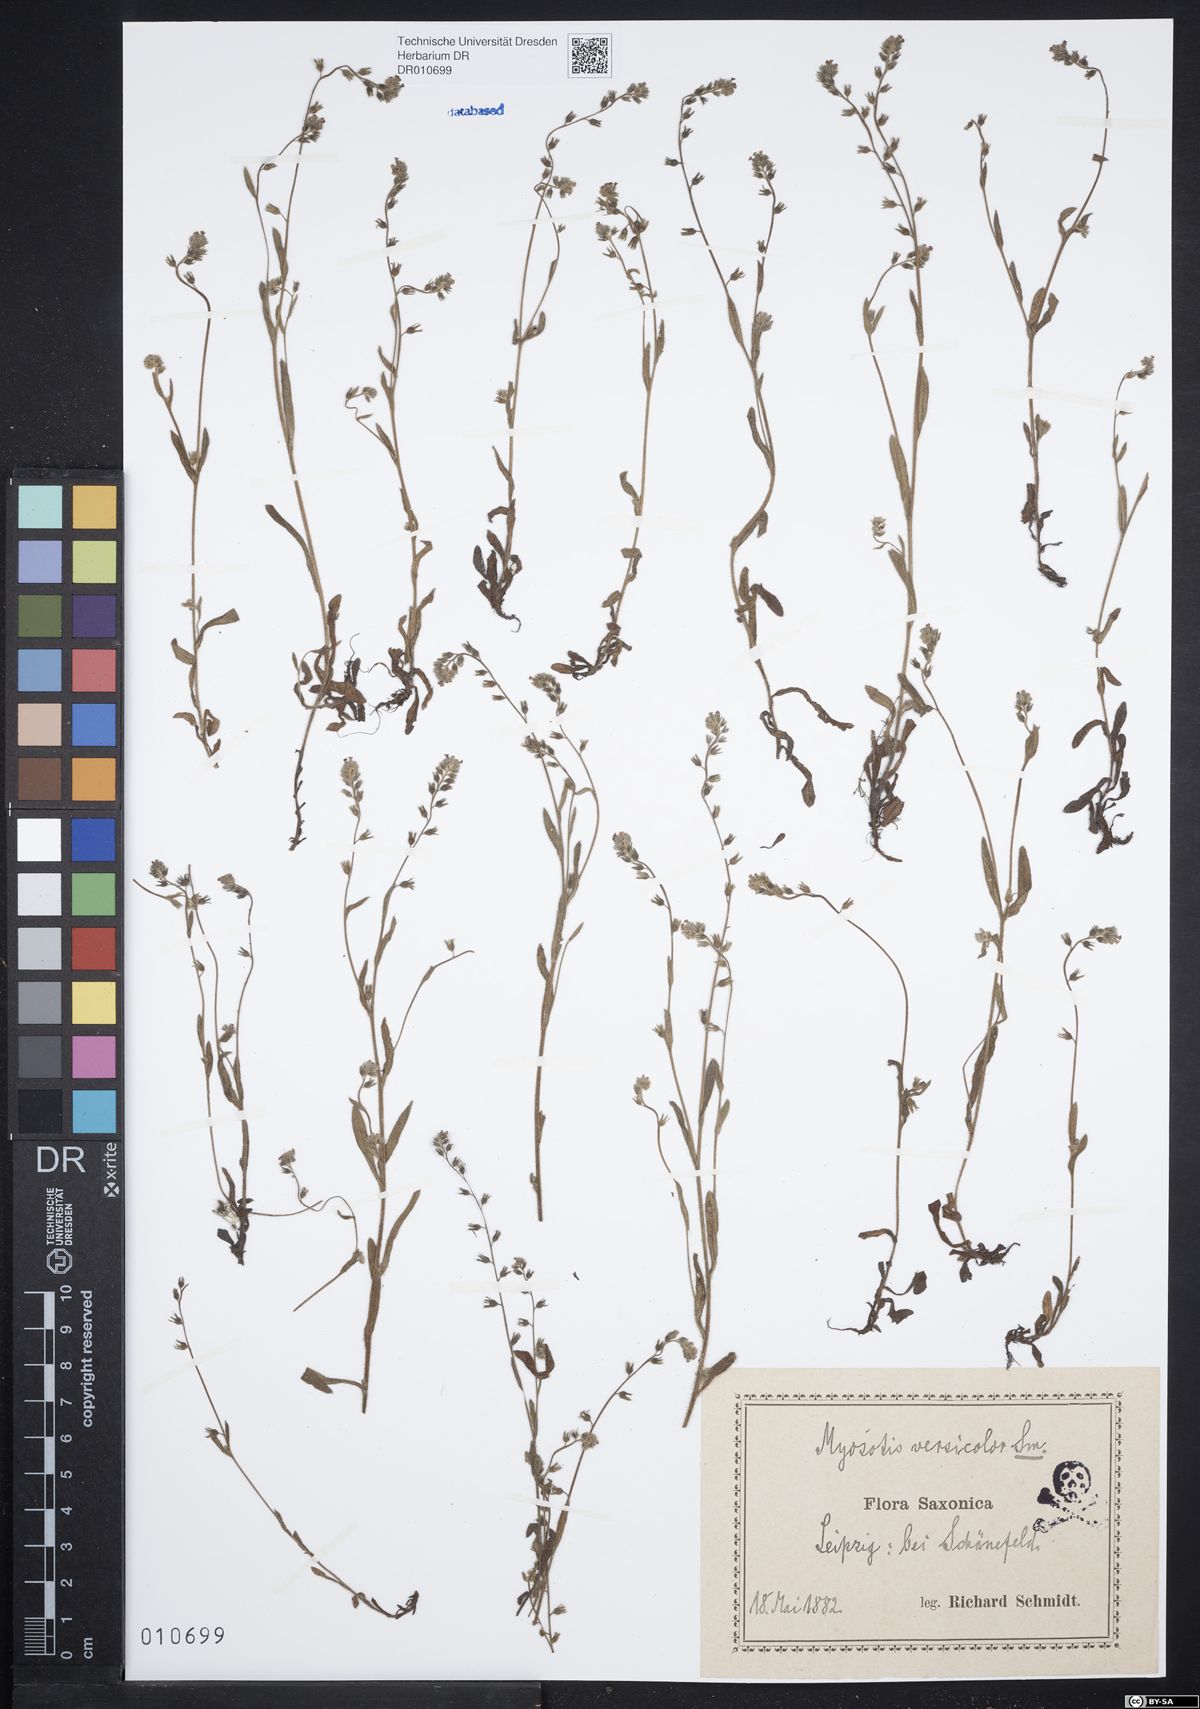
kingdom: Plantae
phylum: Tracheophyta
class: Magnoliopsida
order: Boraginales
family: Boraginaceae
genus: Myosotis
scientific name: Myosotis discolor
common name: Changing forget-me-not
